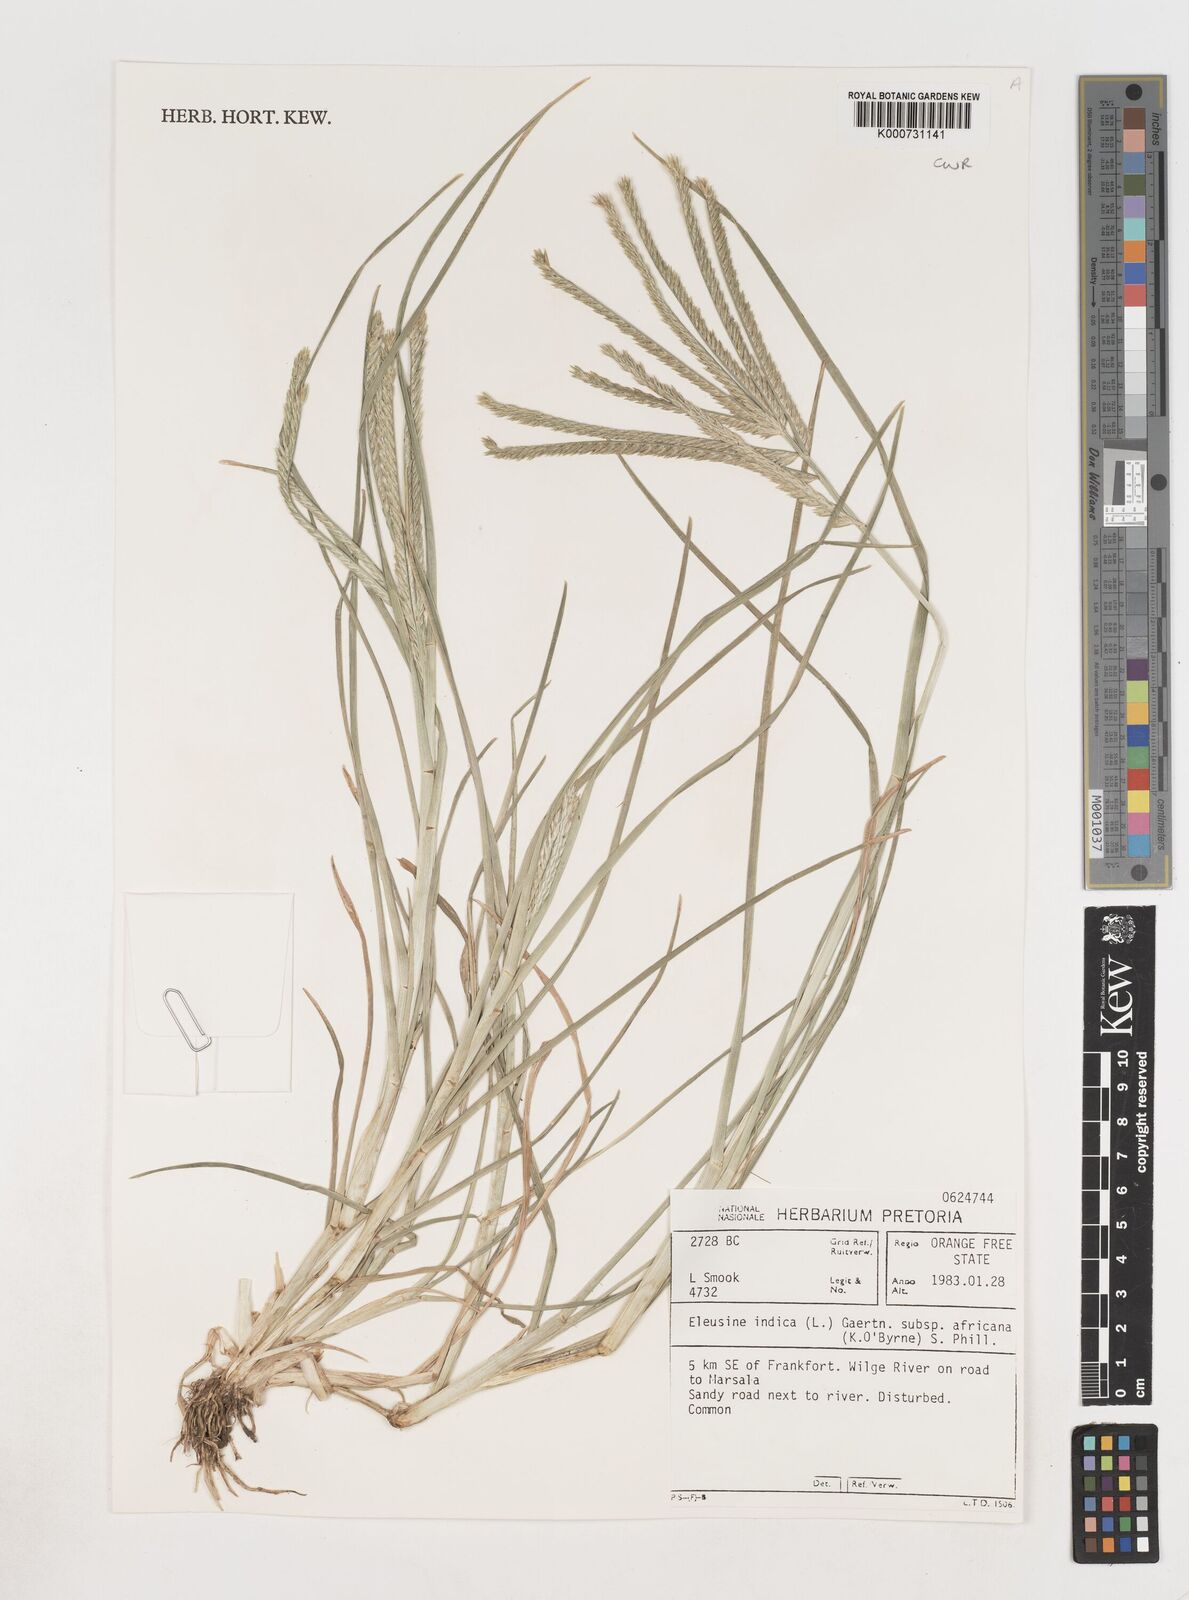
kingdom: Plantae
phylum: Tracheophyta
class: Liliopsida
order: Poales
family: Poaceae
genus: Eleusine
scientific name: Eleusine africana
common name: Wild african finger millet
